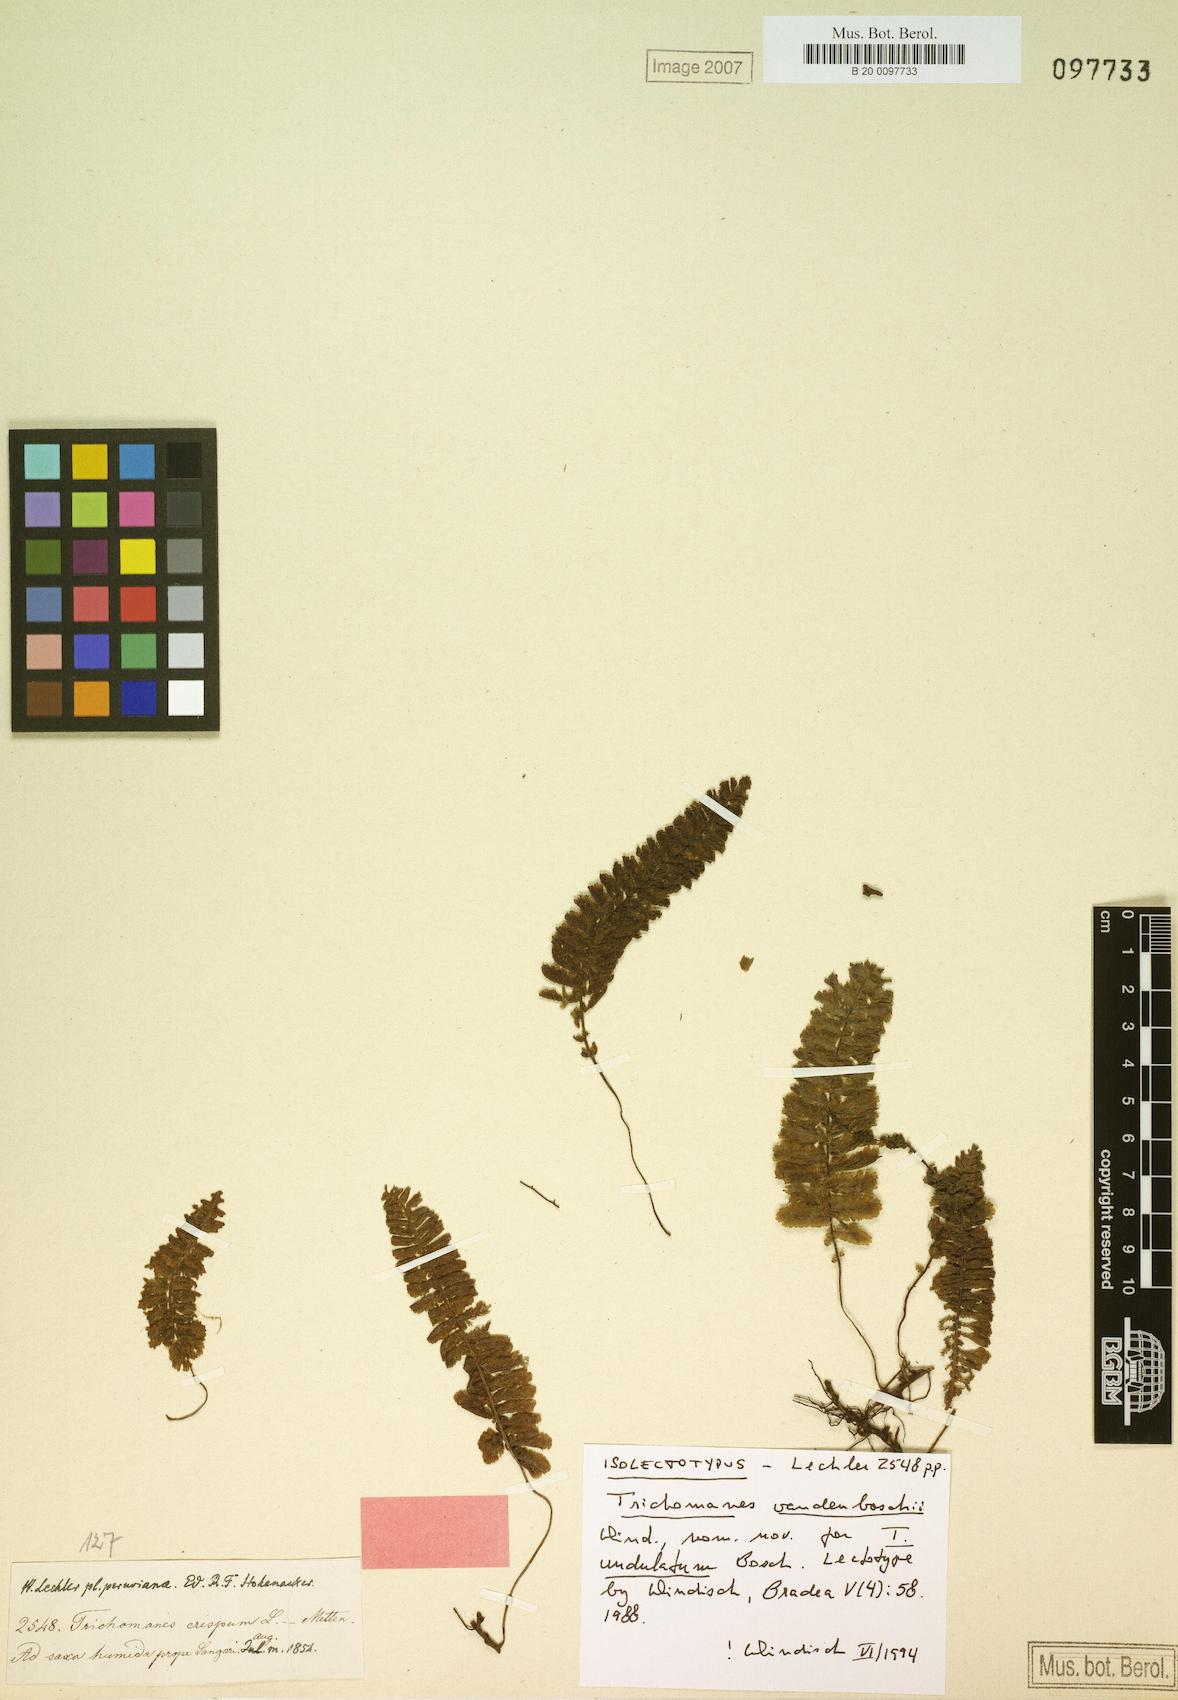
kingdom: Plantae
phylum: Tracheophyta
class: Polypodiopsida
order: Hymenophyllales
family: Hymenophyllaceae
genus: Trichomanes
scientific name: Trichomanes vandenboschii
